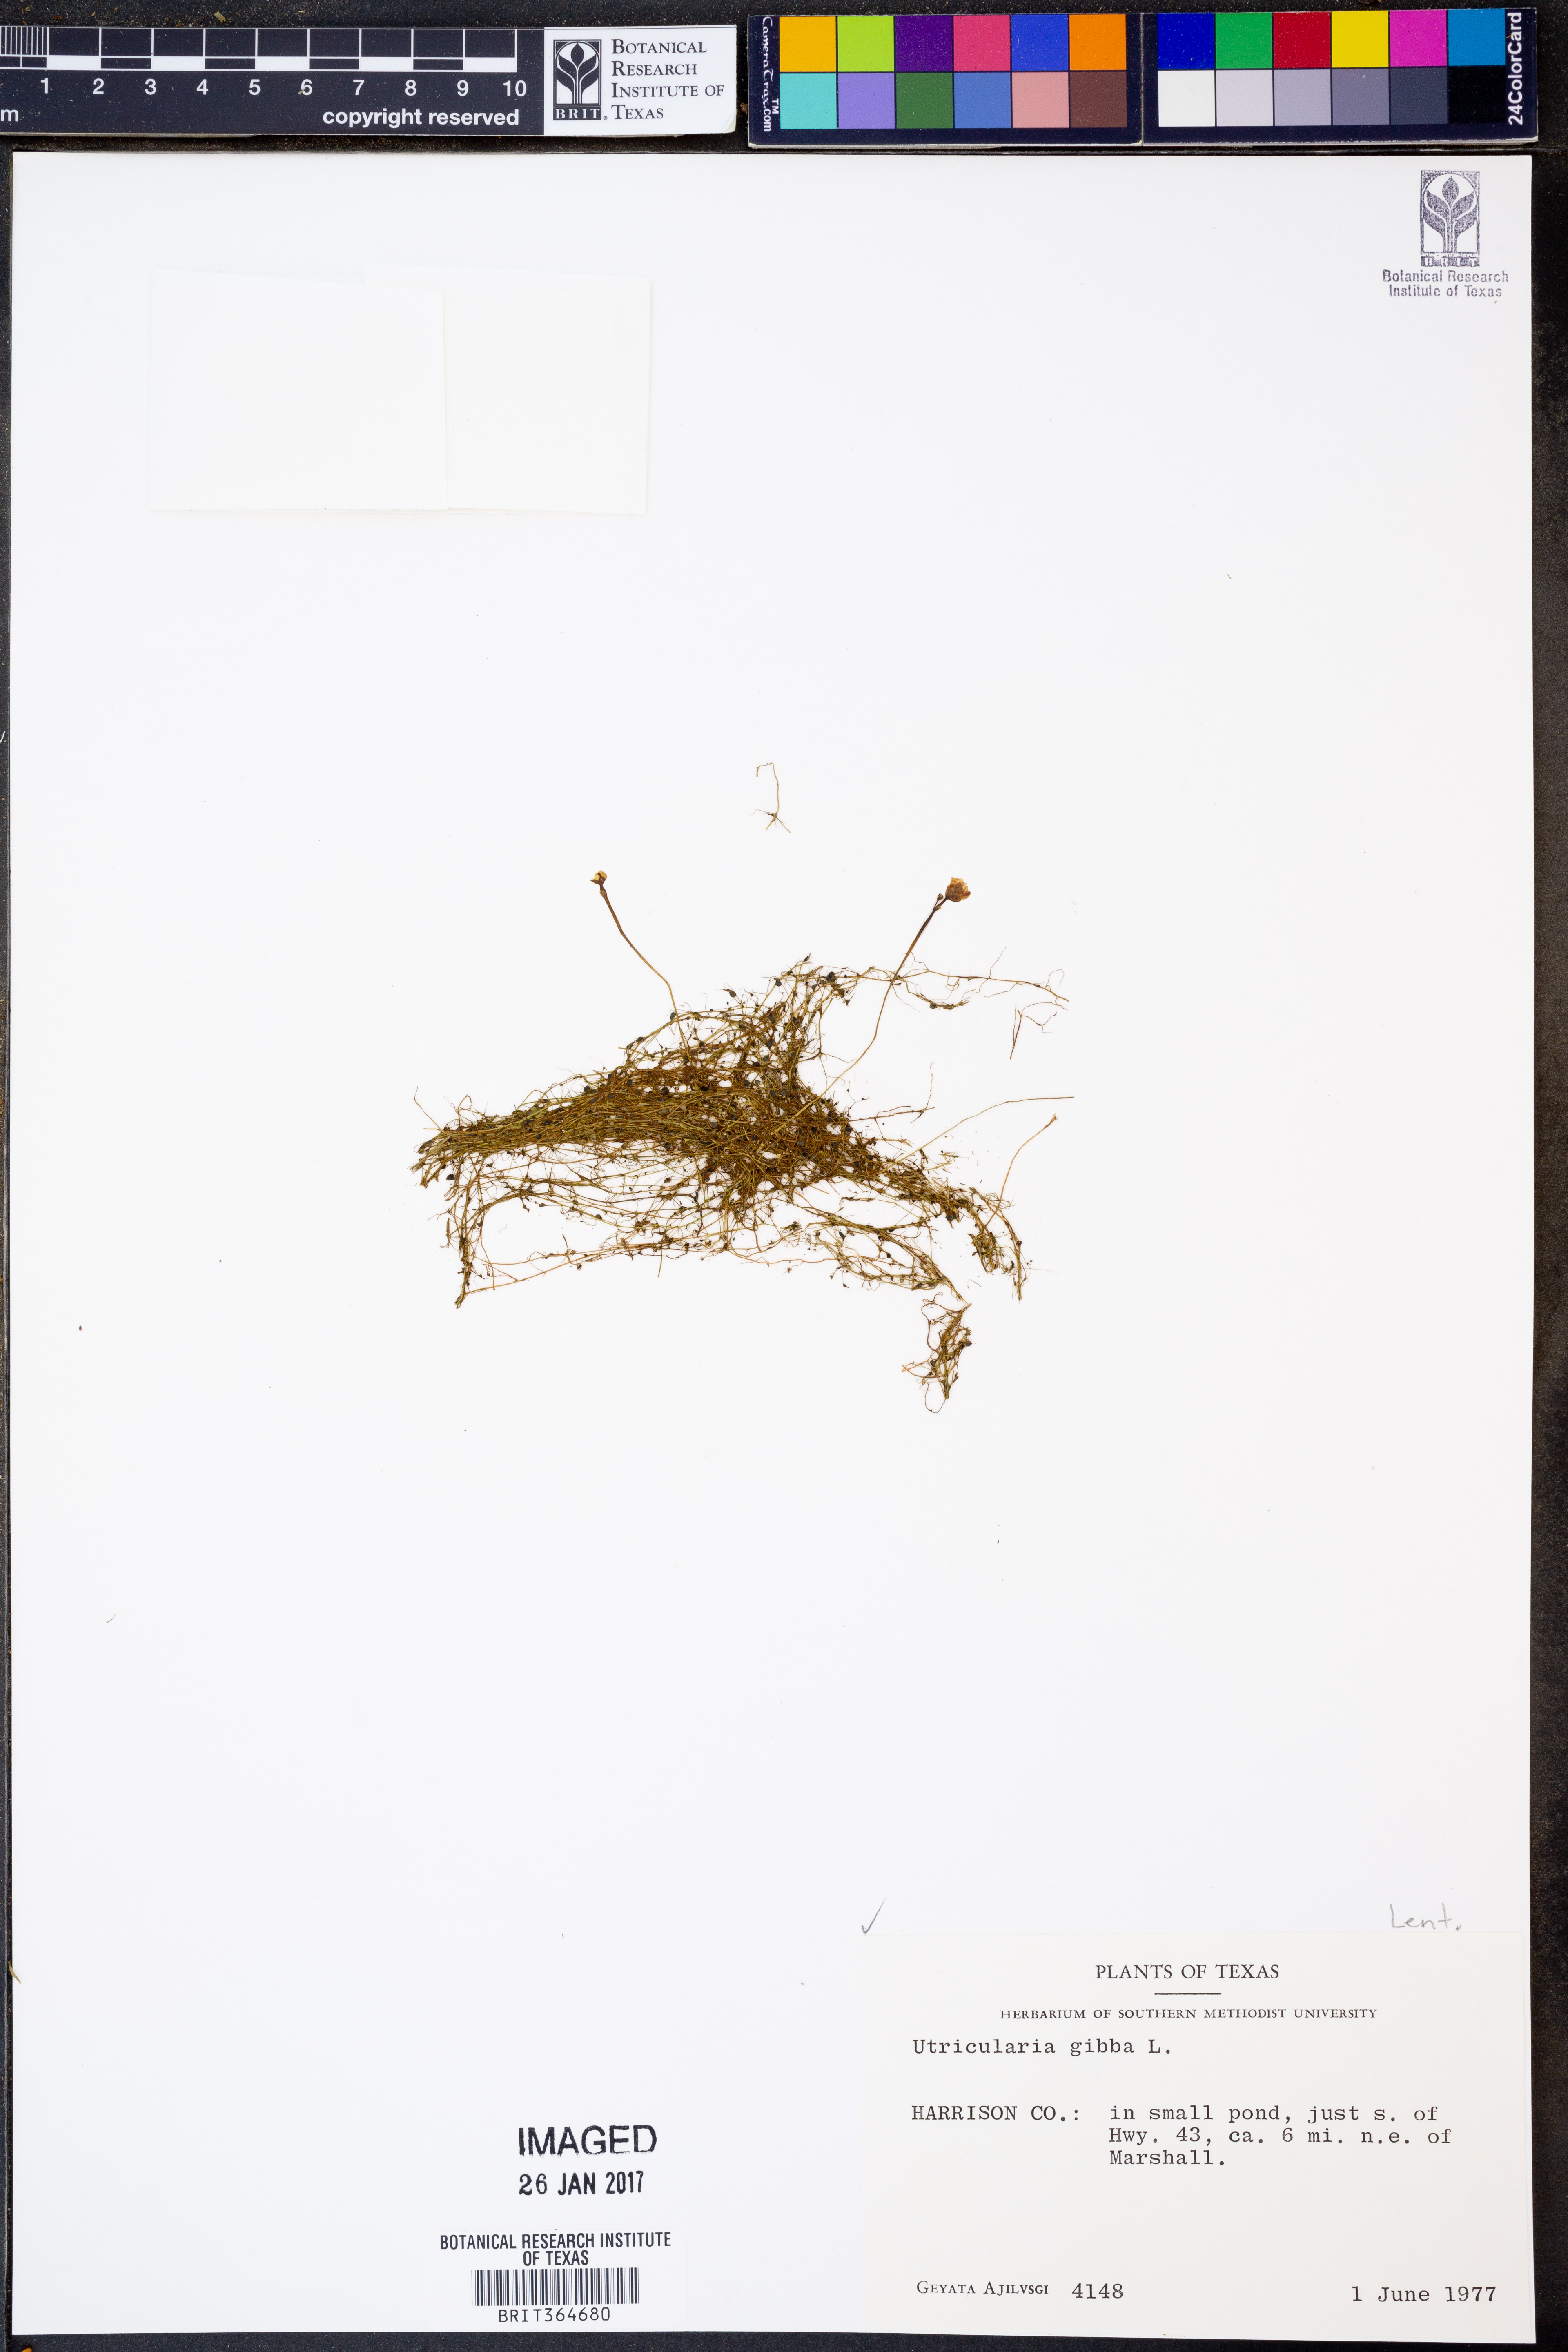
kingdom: Plantae
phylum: Tracheophyta
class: Magnoliopsida
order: Lamiales
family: Lentibulariaceae
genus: Utricularia
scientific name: Utricularia gibba
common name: Humped bladderwort
